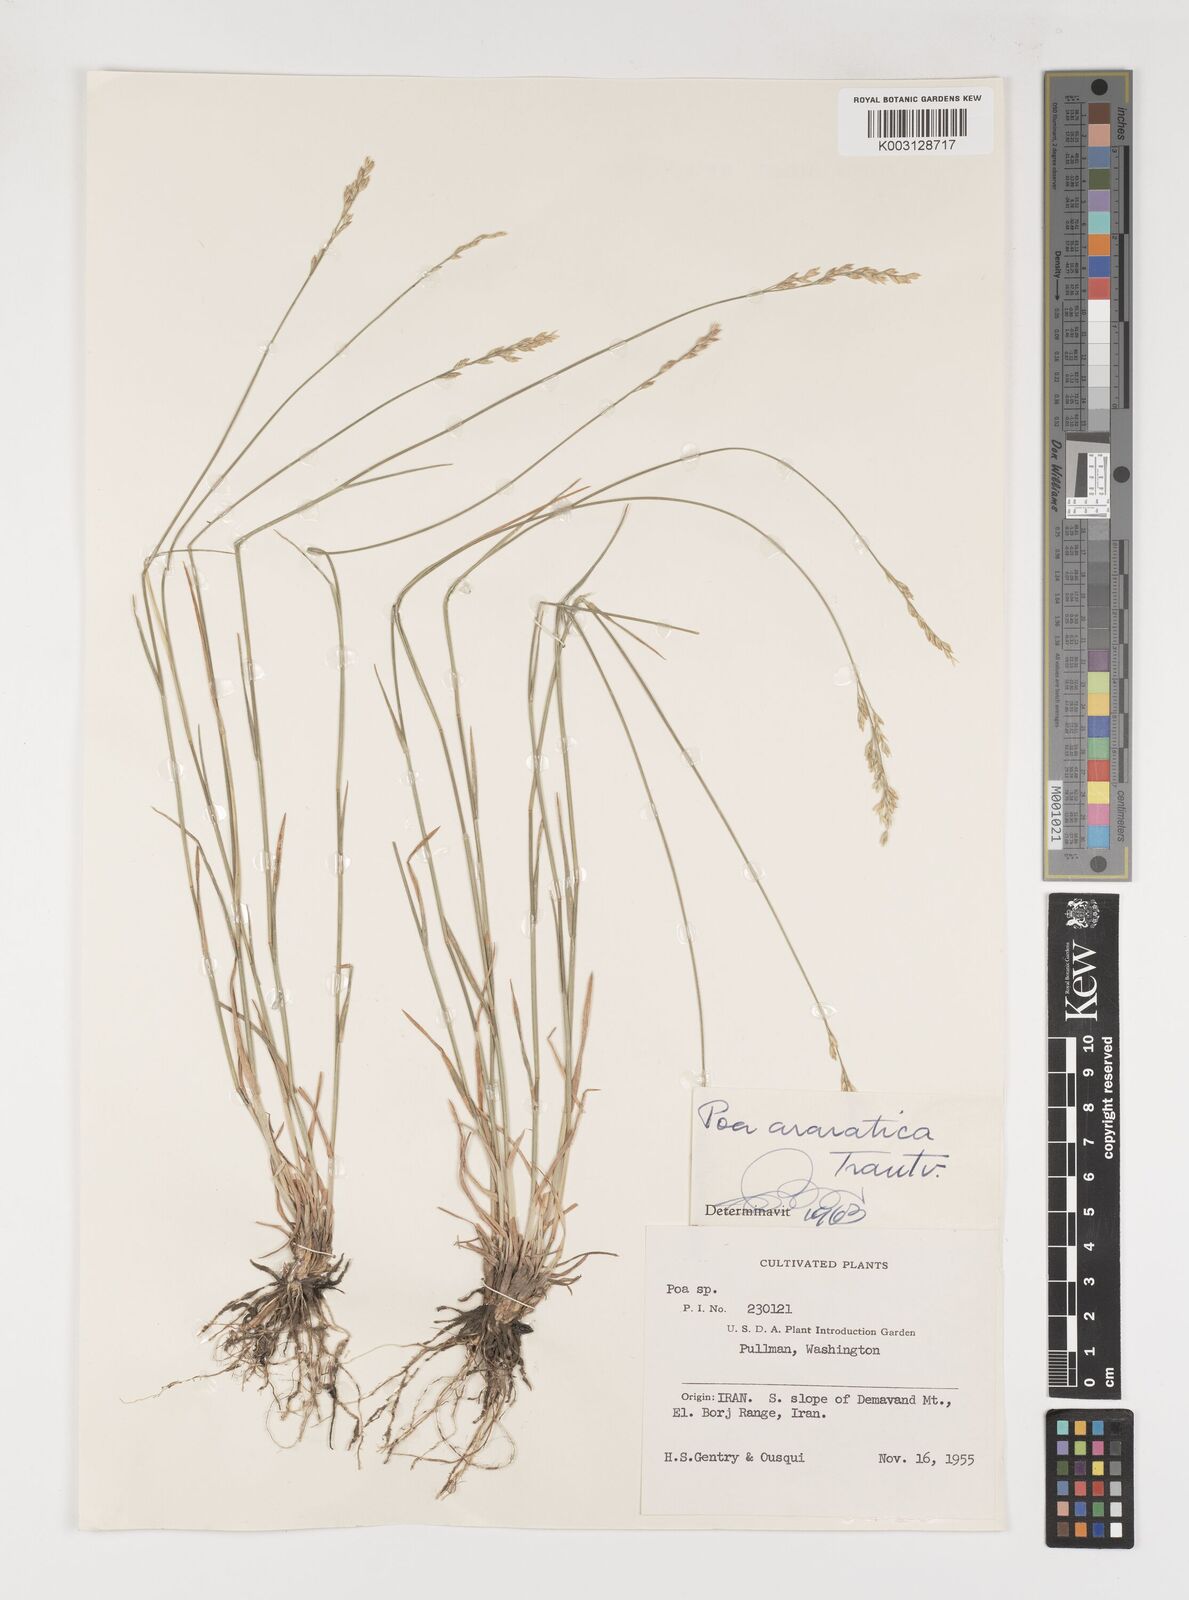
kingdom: Plantae
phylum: Tracheophyta
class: Liliopsida
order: Poales
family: Poaceae
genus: Poa
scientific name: Poa araratica
